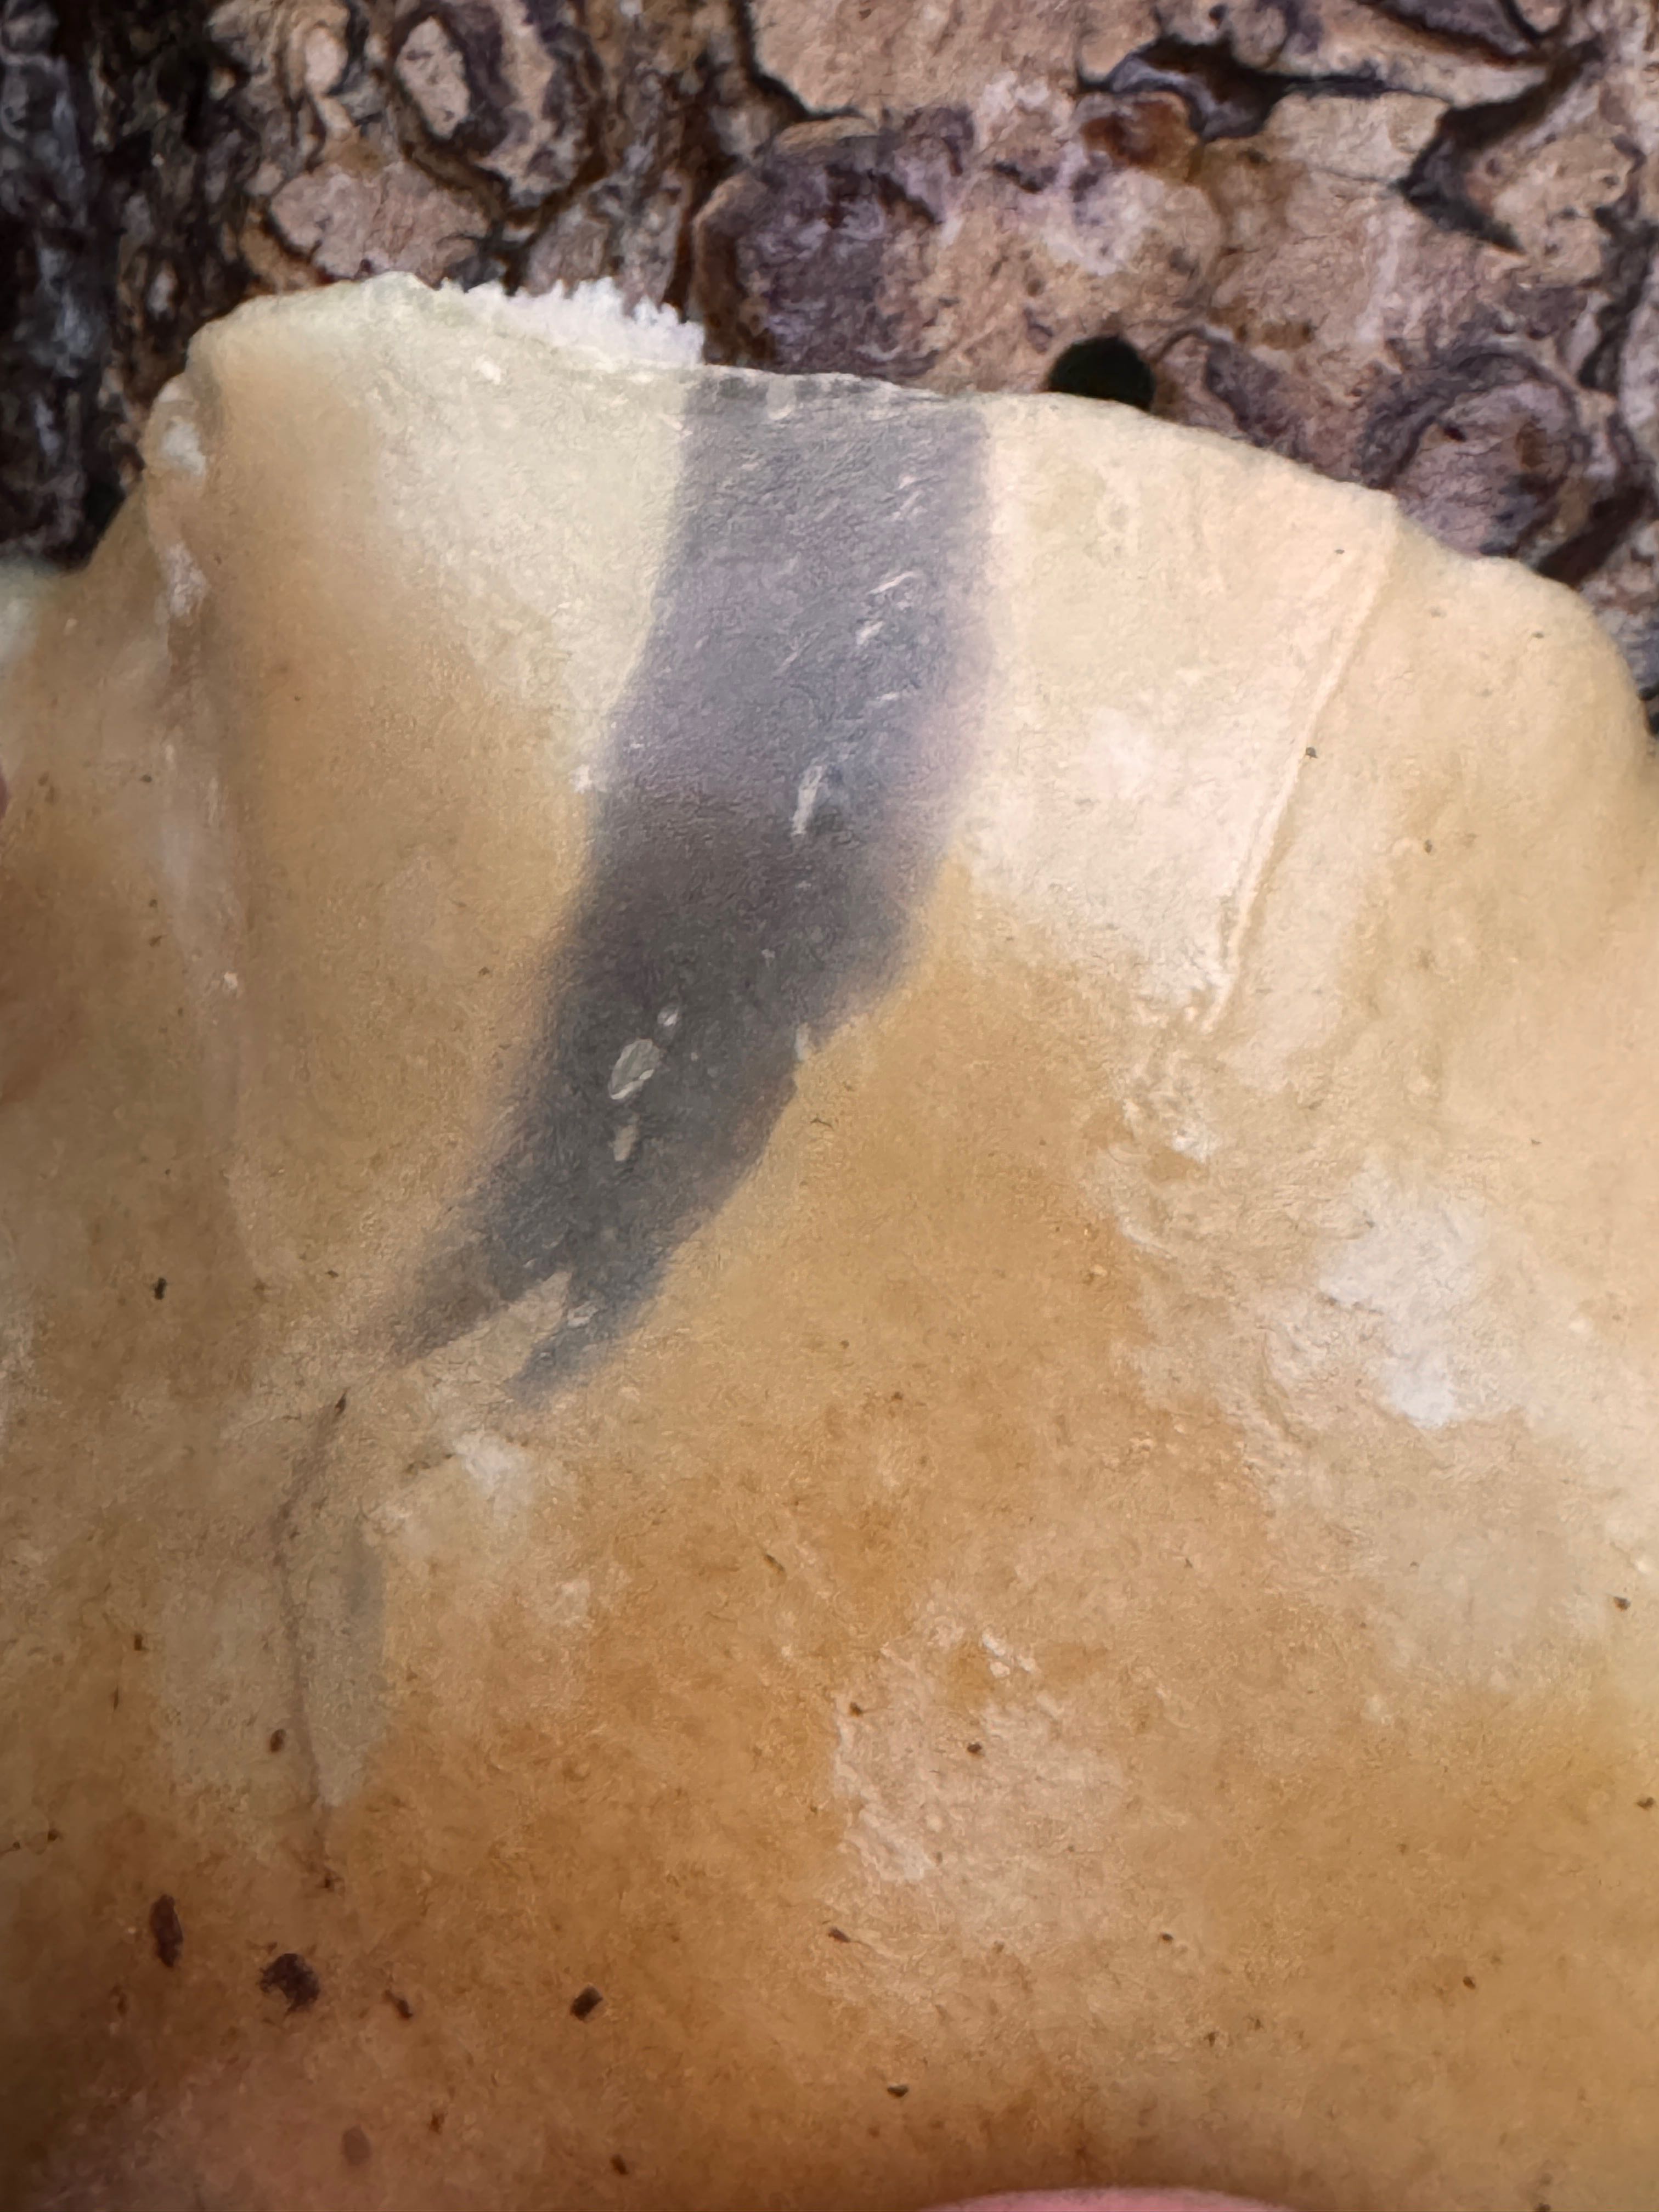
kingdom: Fungi
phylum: Basidiomycota
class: Agaricomycetes
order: Agaricales
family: Crepidotaceae
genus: Crepidotus
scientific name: Crepidotus mollis
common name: blød muslingesvamp
